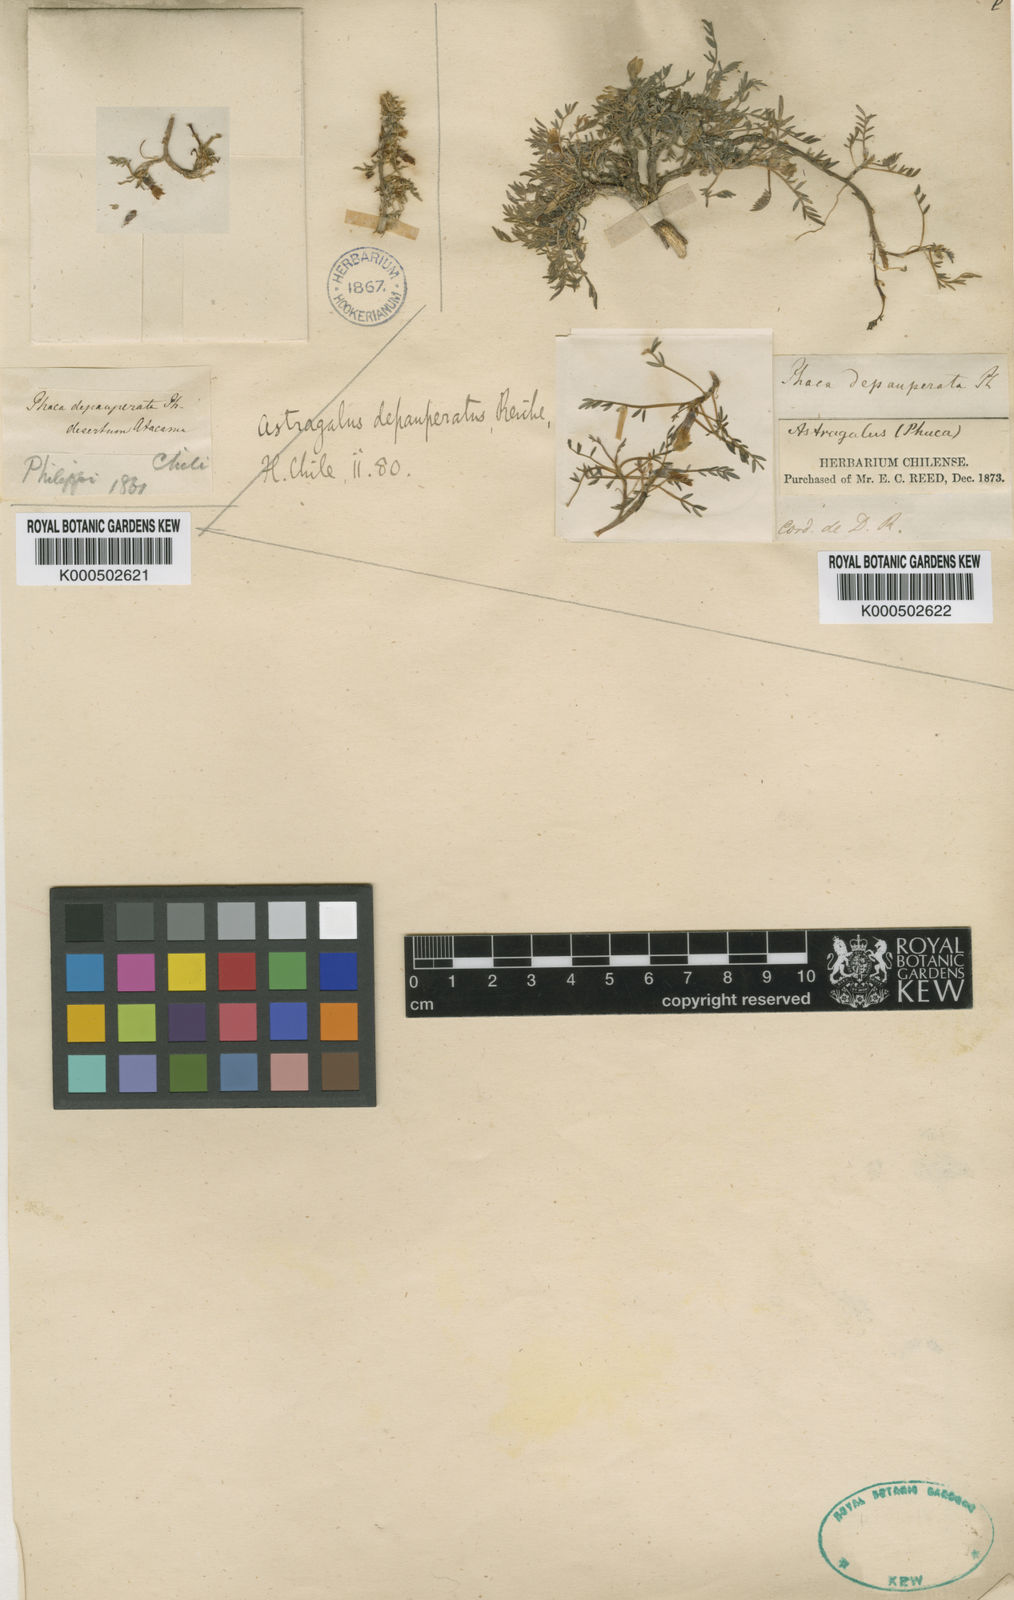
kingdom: Plantae
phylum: Tracheophyta
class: Magnoliopsida
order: Fabales
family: Fabaceae
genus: Astragalus
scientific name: Astragalus
